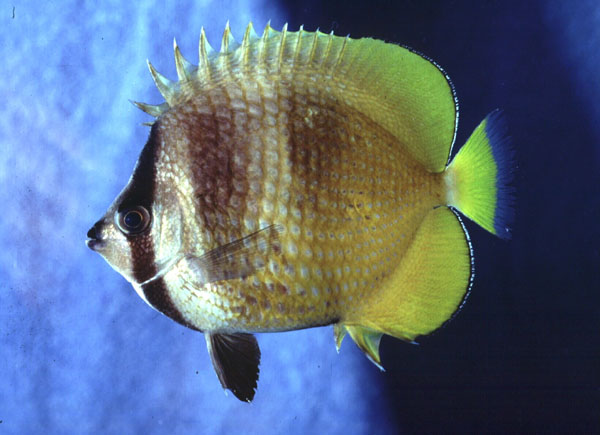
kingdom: Animalia
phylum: Chordata
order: Perciformes
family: Chaetodontidae
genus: Chaetodon
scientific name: Chaetodon kleinii
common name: Klein's butterflyfish
